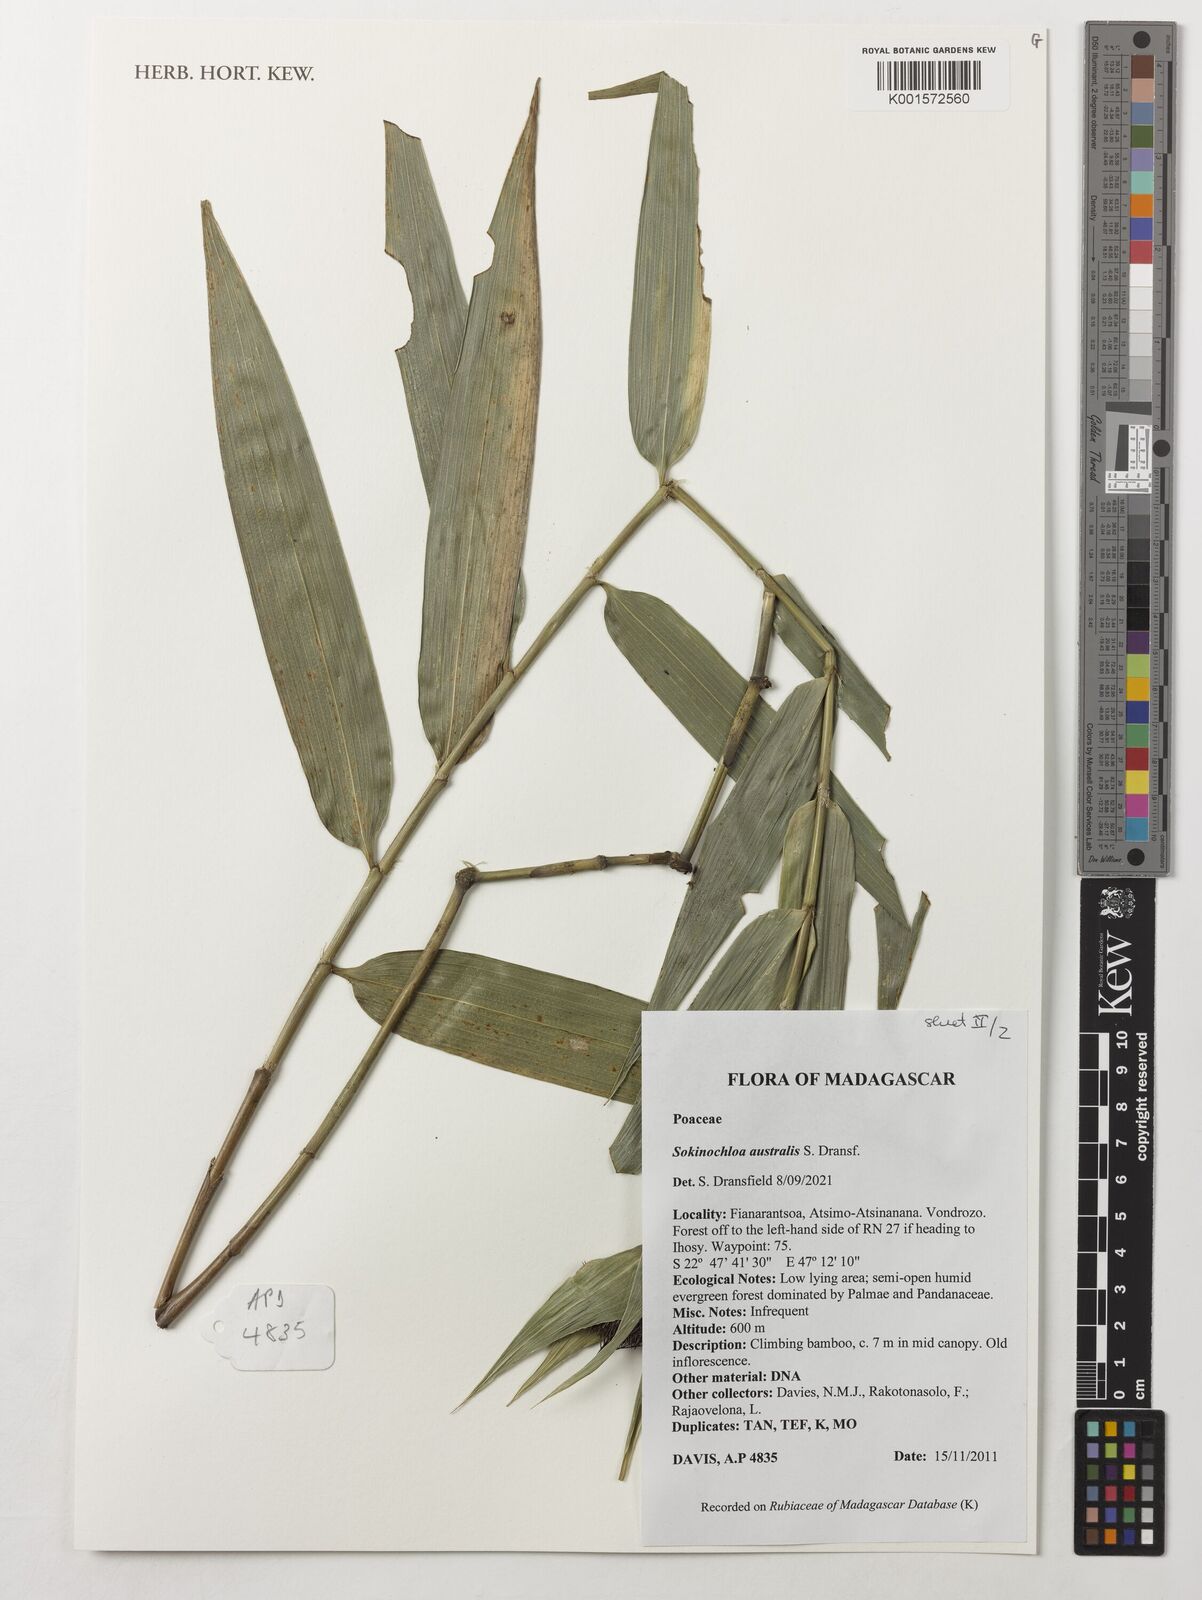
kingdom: Plantae
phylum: Tracheophyta
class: Liliopsida
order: Poales
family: Poaceae
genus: Sokinochloa
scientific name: Sokinochloa australis
